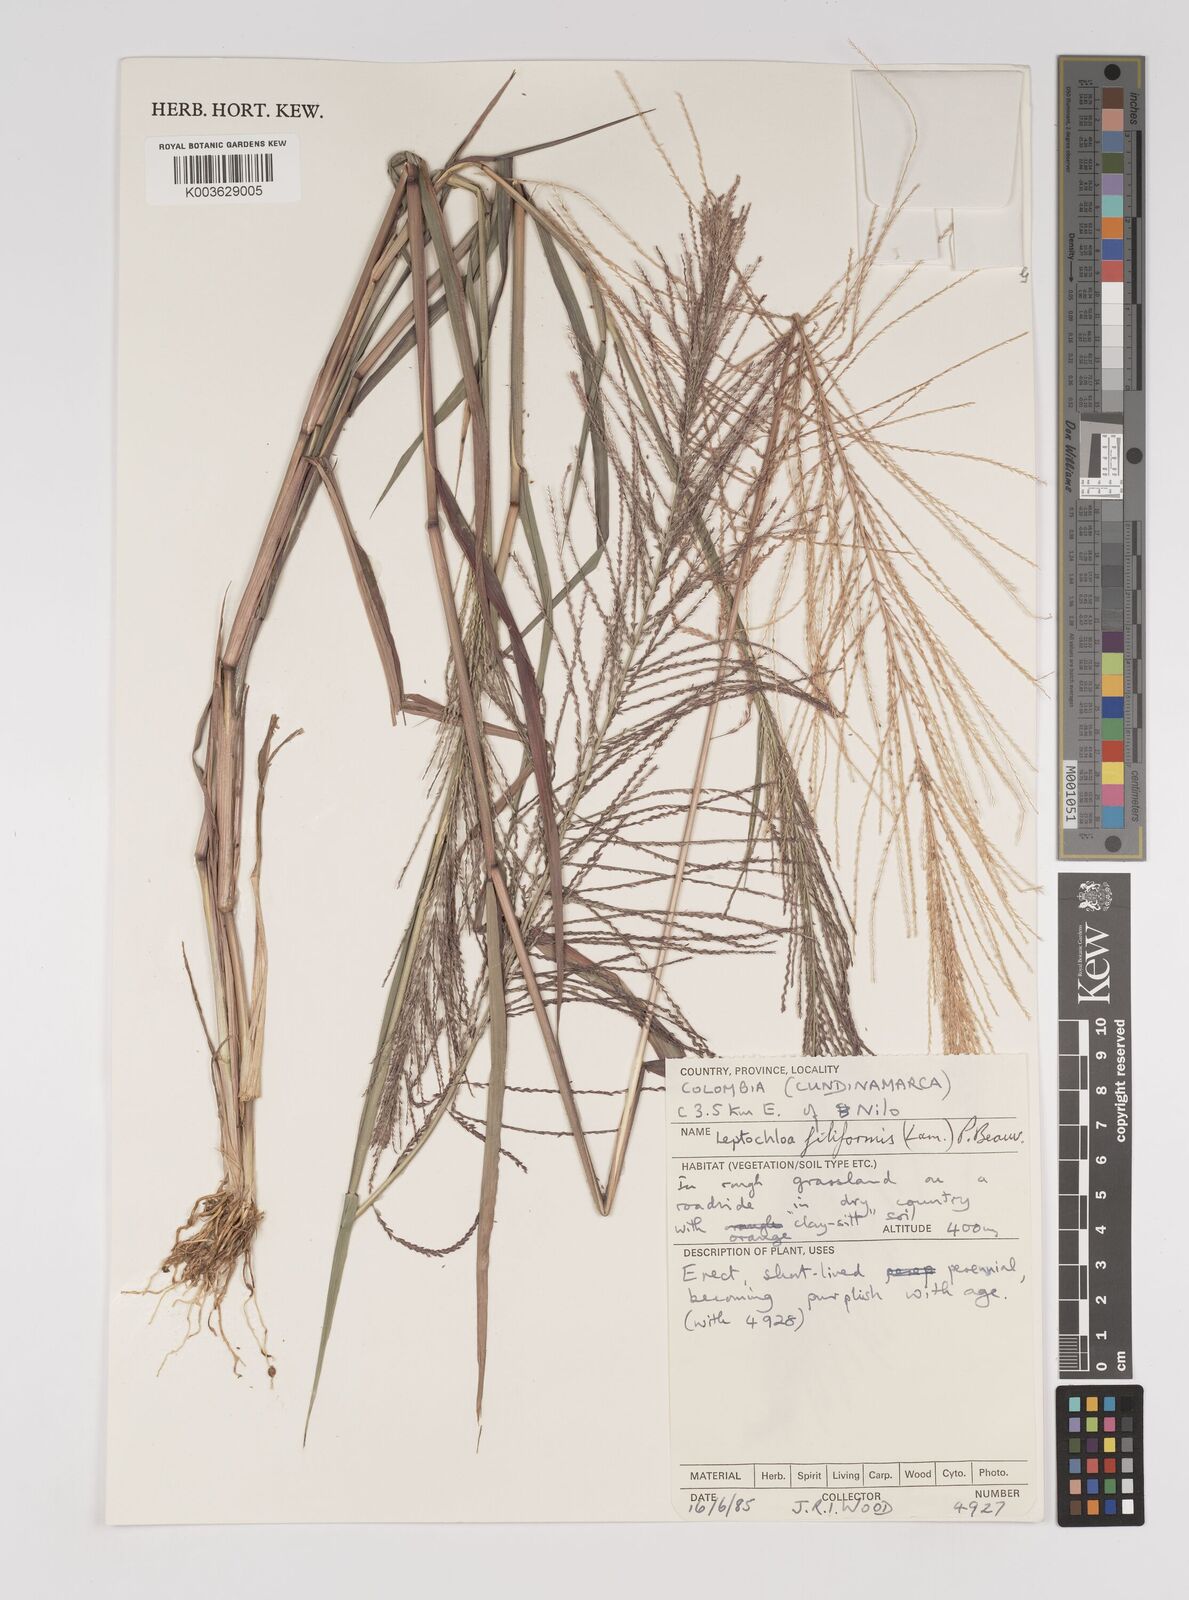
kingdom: Plantae
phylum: Tracheophyta
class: Liliopsida
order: Poales
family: Poaceae
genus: Leptochloa
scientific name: Leptochloa panicea
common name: Mucronate sprangletop
